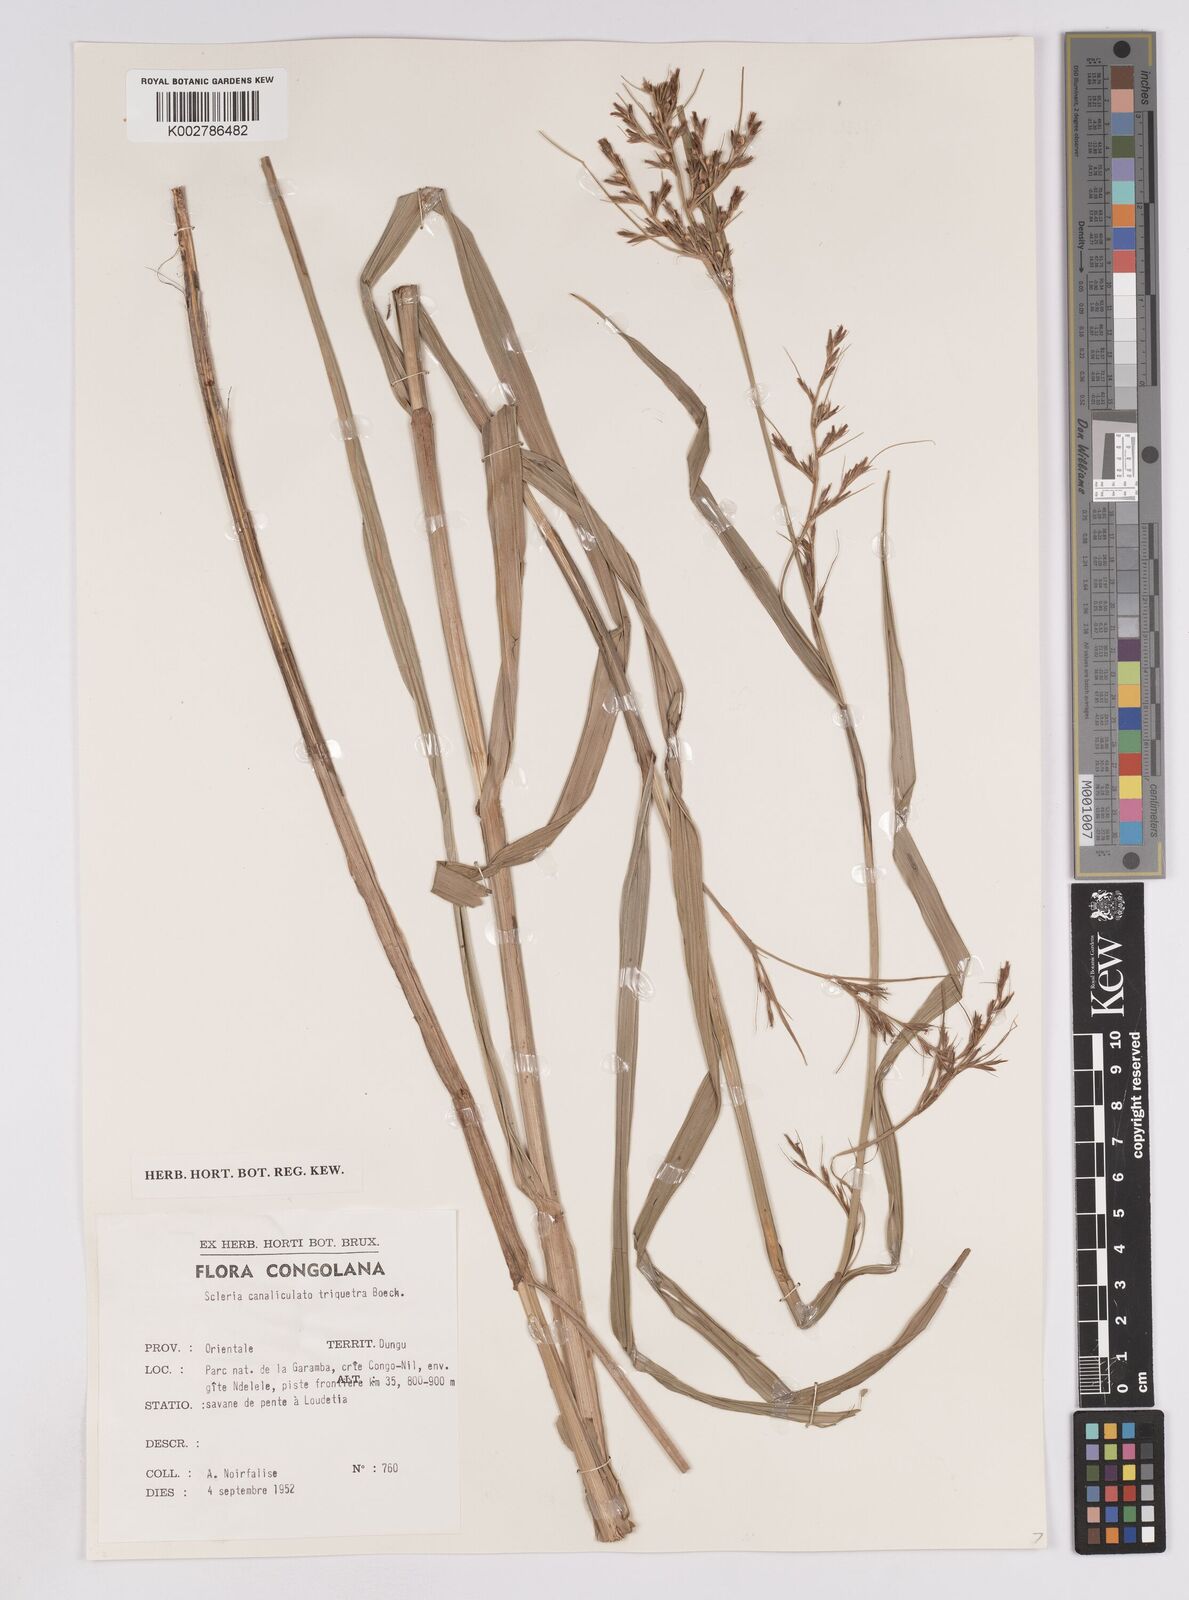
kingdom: Plantae
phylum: Tracheophyta
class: Liliopsida
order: Poales
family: Cyperaceae
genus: Scleria
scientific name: Scleria lagoensis
